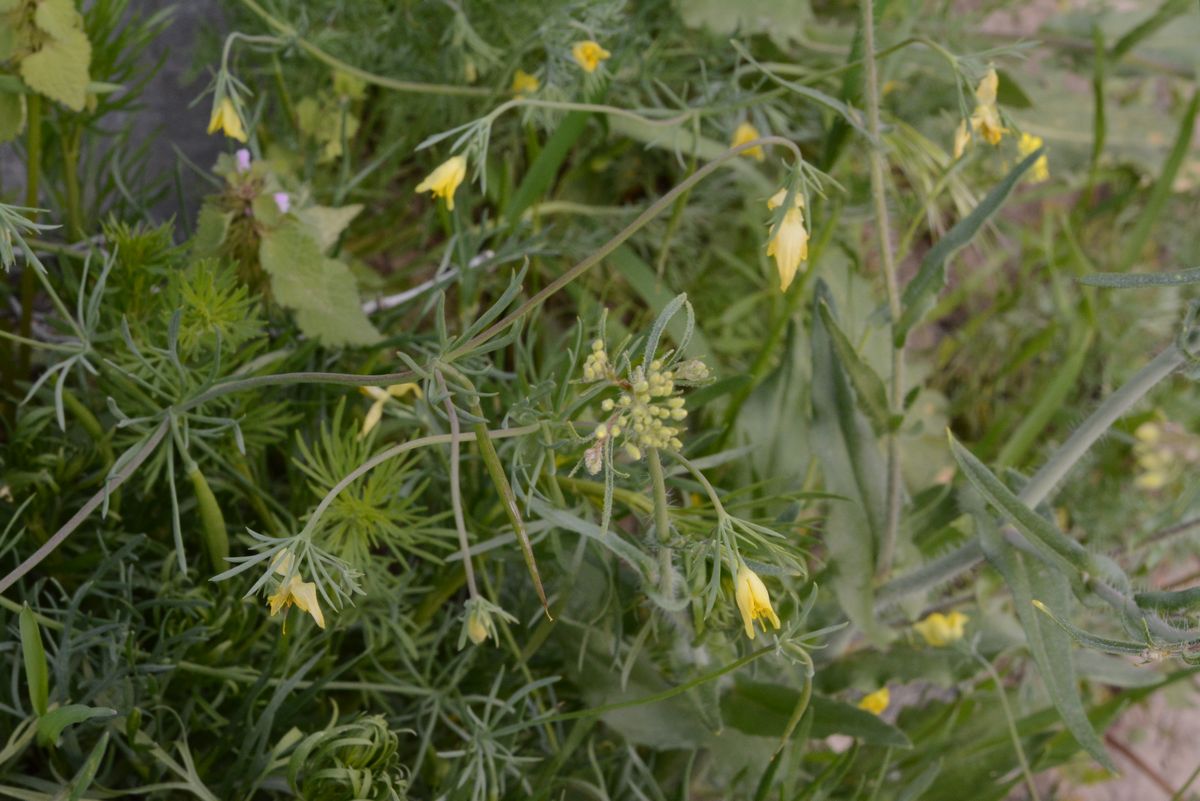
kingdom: Plantae
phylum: Tracheophyta
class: Magnoliopsida
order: Ranunculales
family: Papaveraceae
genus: Hypecoum
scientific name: Hypecoum pendulum
